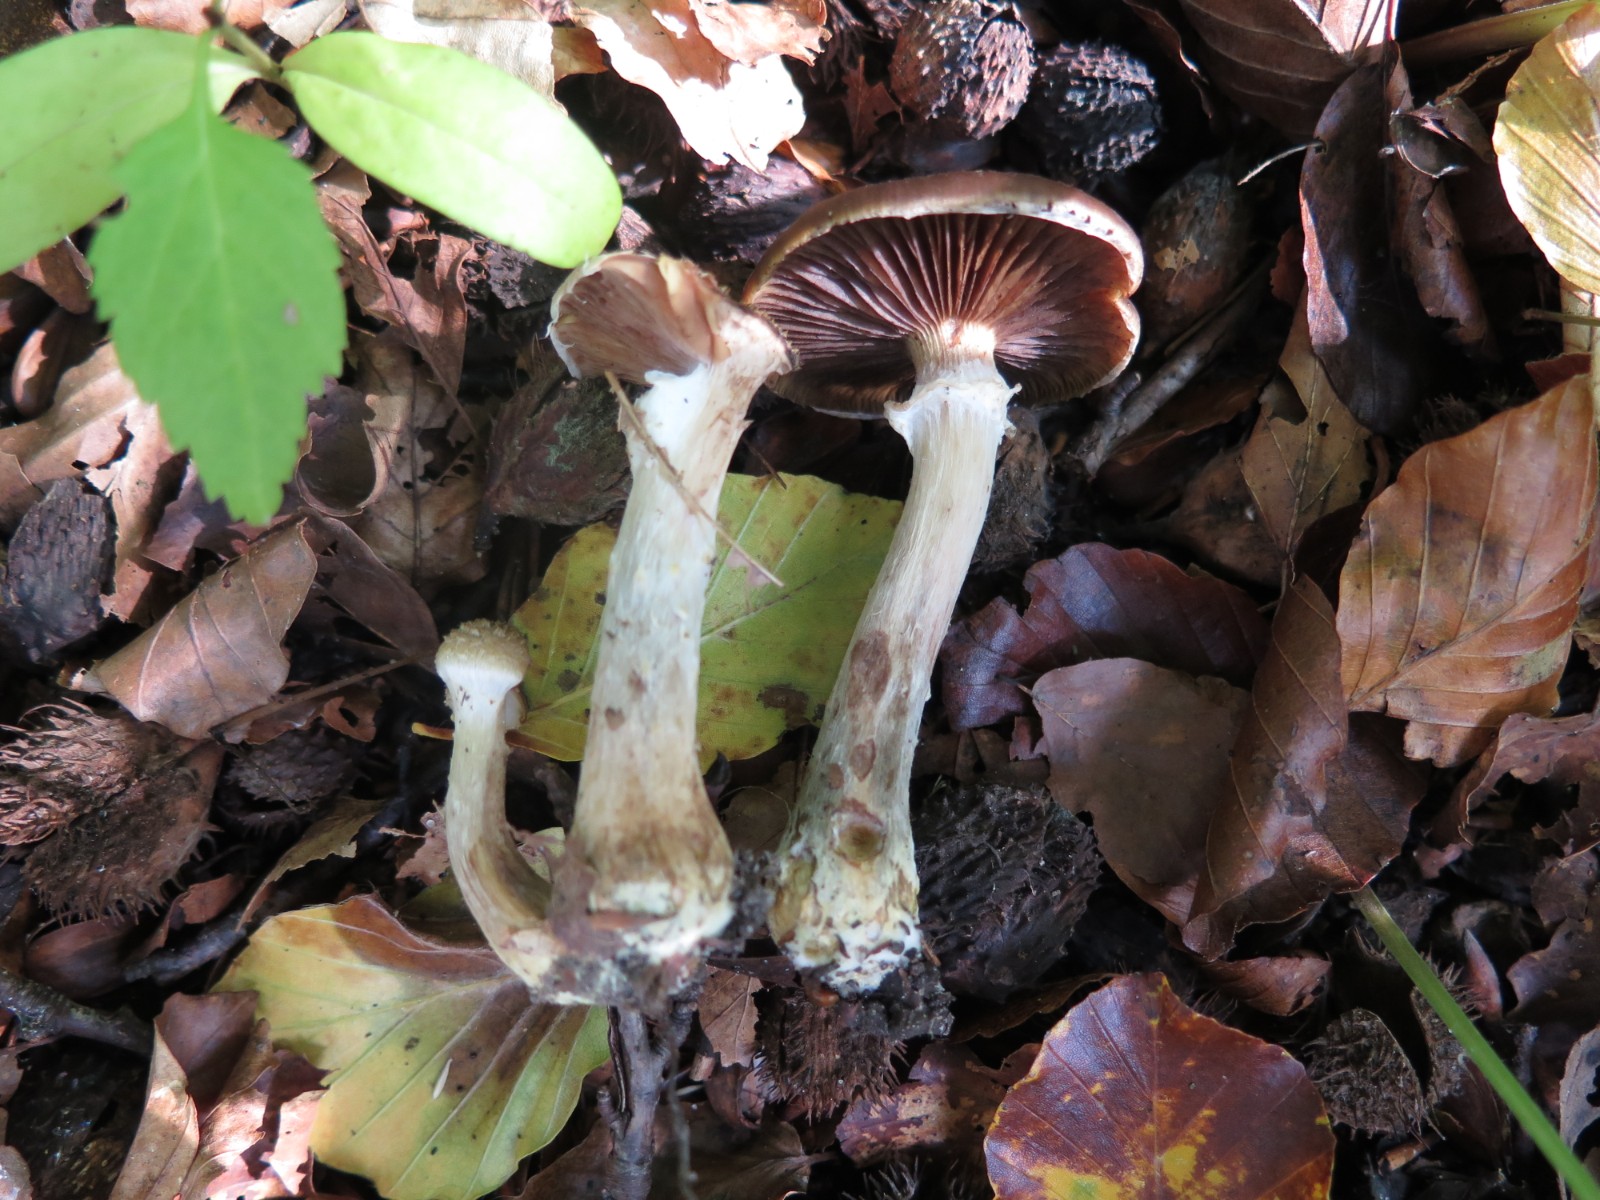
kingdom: Fungi
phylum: Basidiomycota
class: Agaricomycetes
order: Agaricales
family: Physalacriaceae
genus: Armillaria
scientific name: Armillaria lutea
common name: køllestokket honningsvamp
